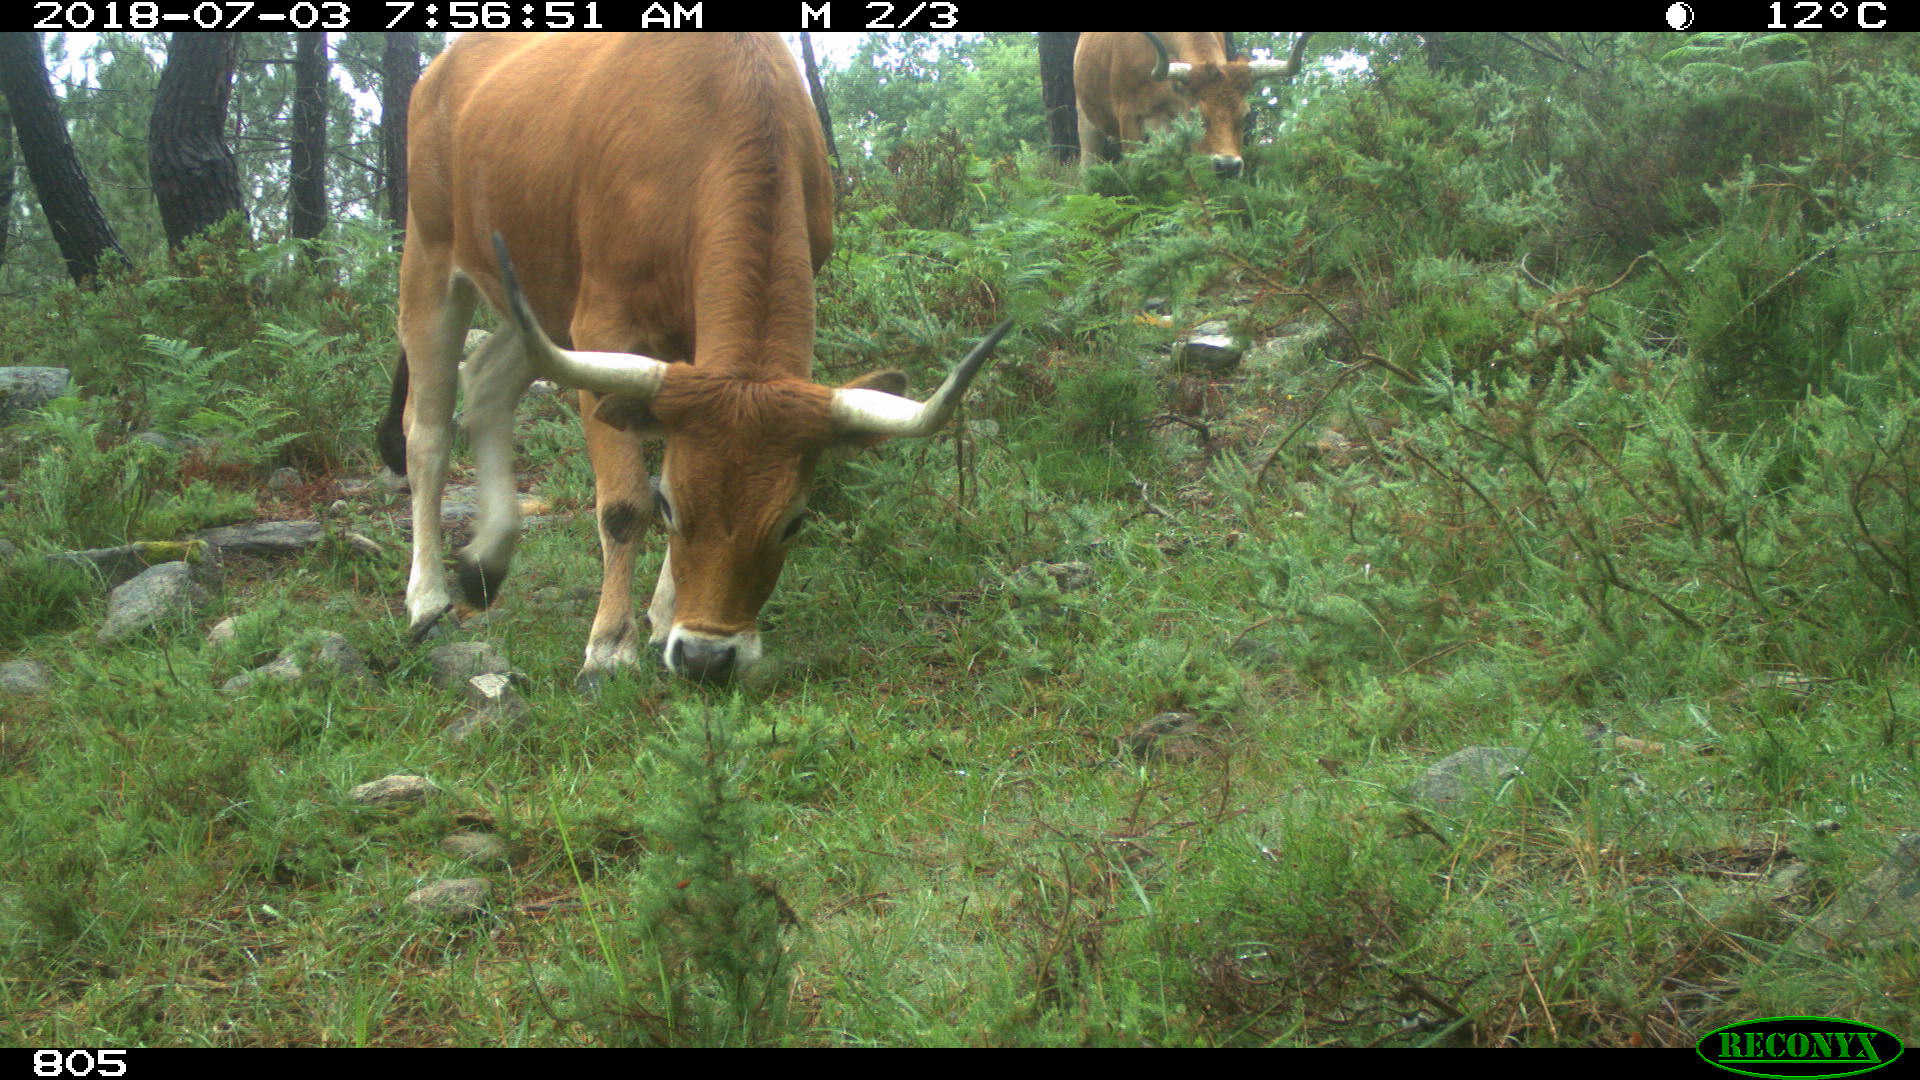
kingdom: Animalia
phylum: Chordata
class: Mammalia
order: Artiodactyla
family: Bovidae
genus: Bos
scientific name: Bos taurus
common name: Domesticated cattle
